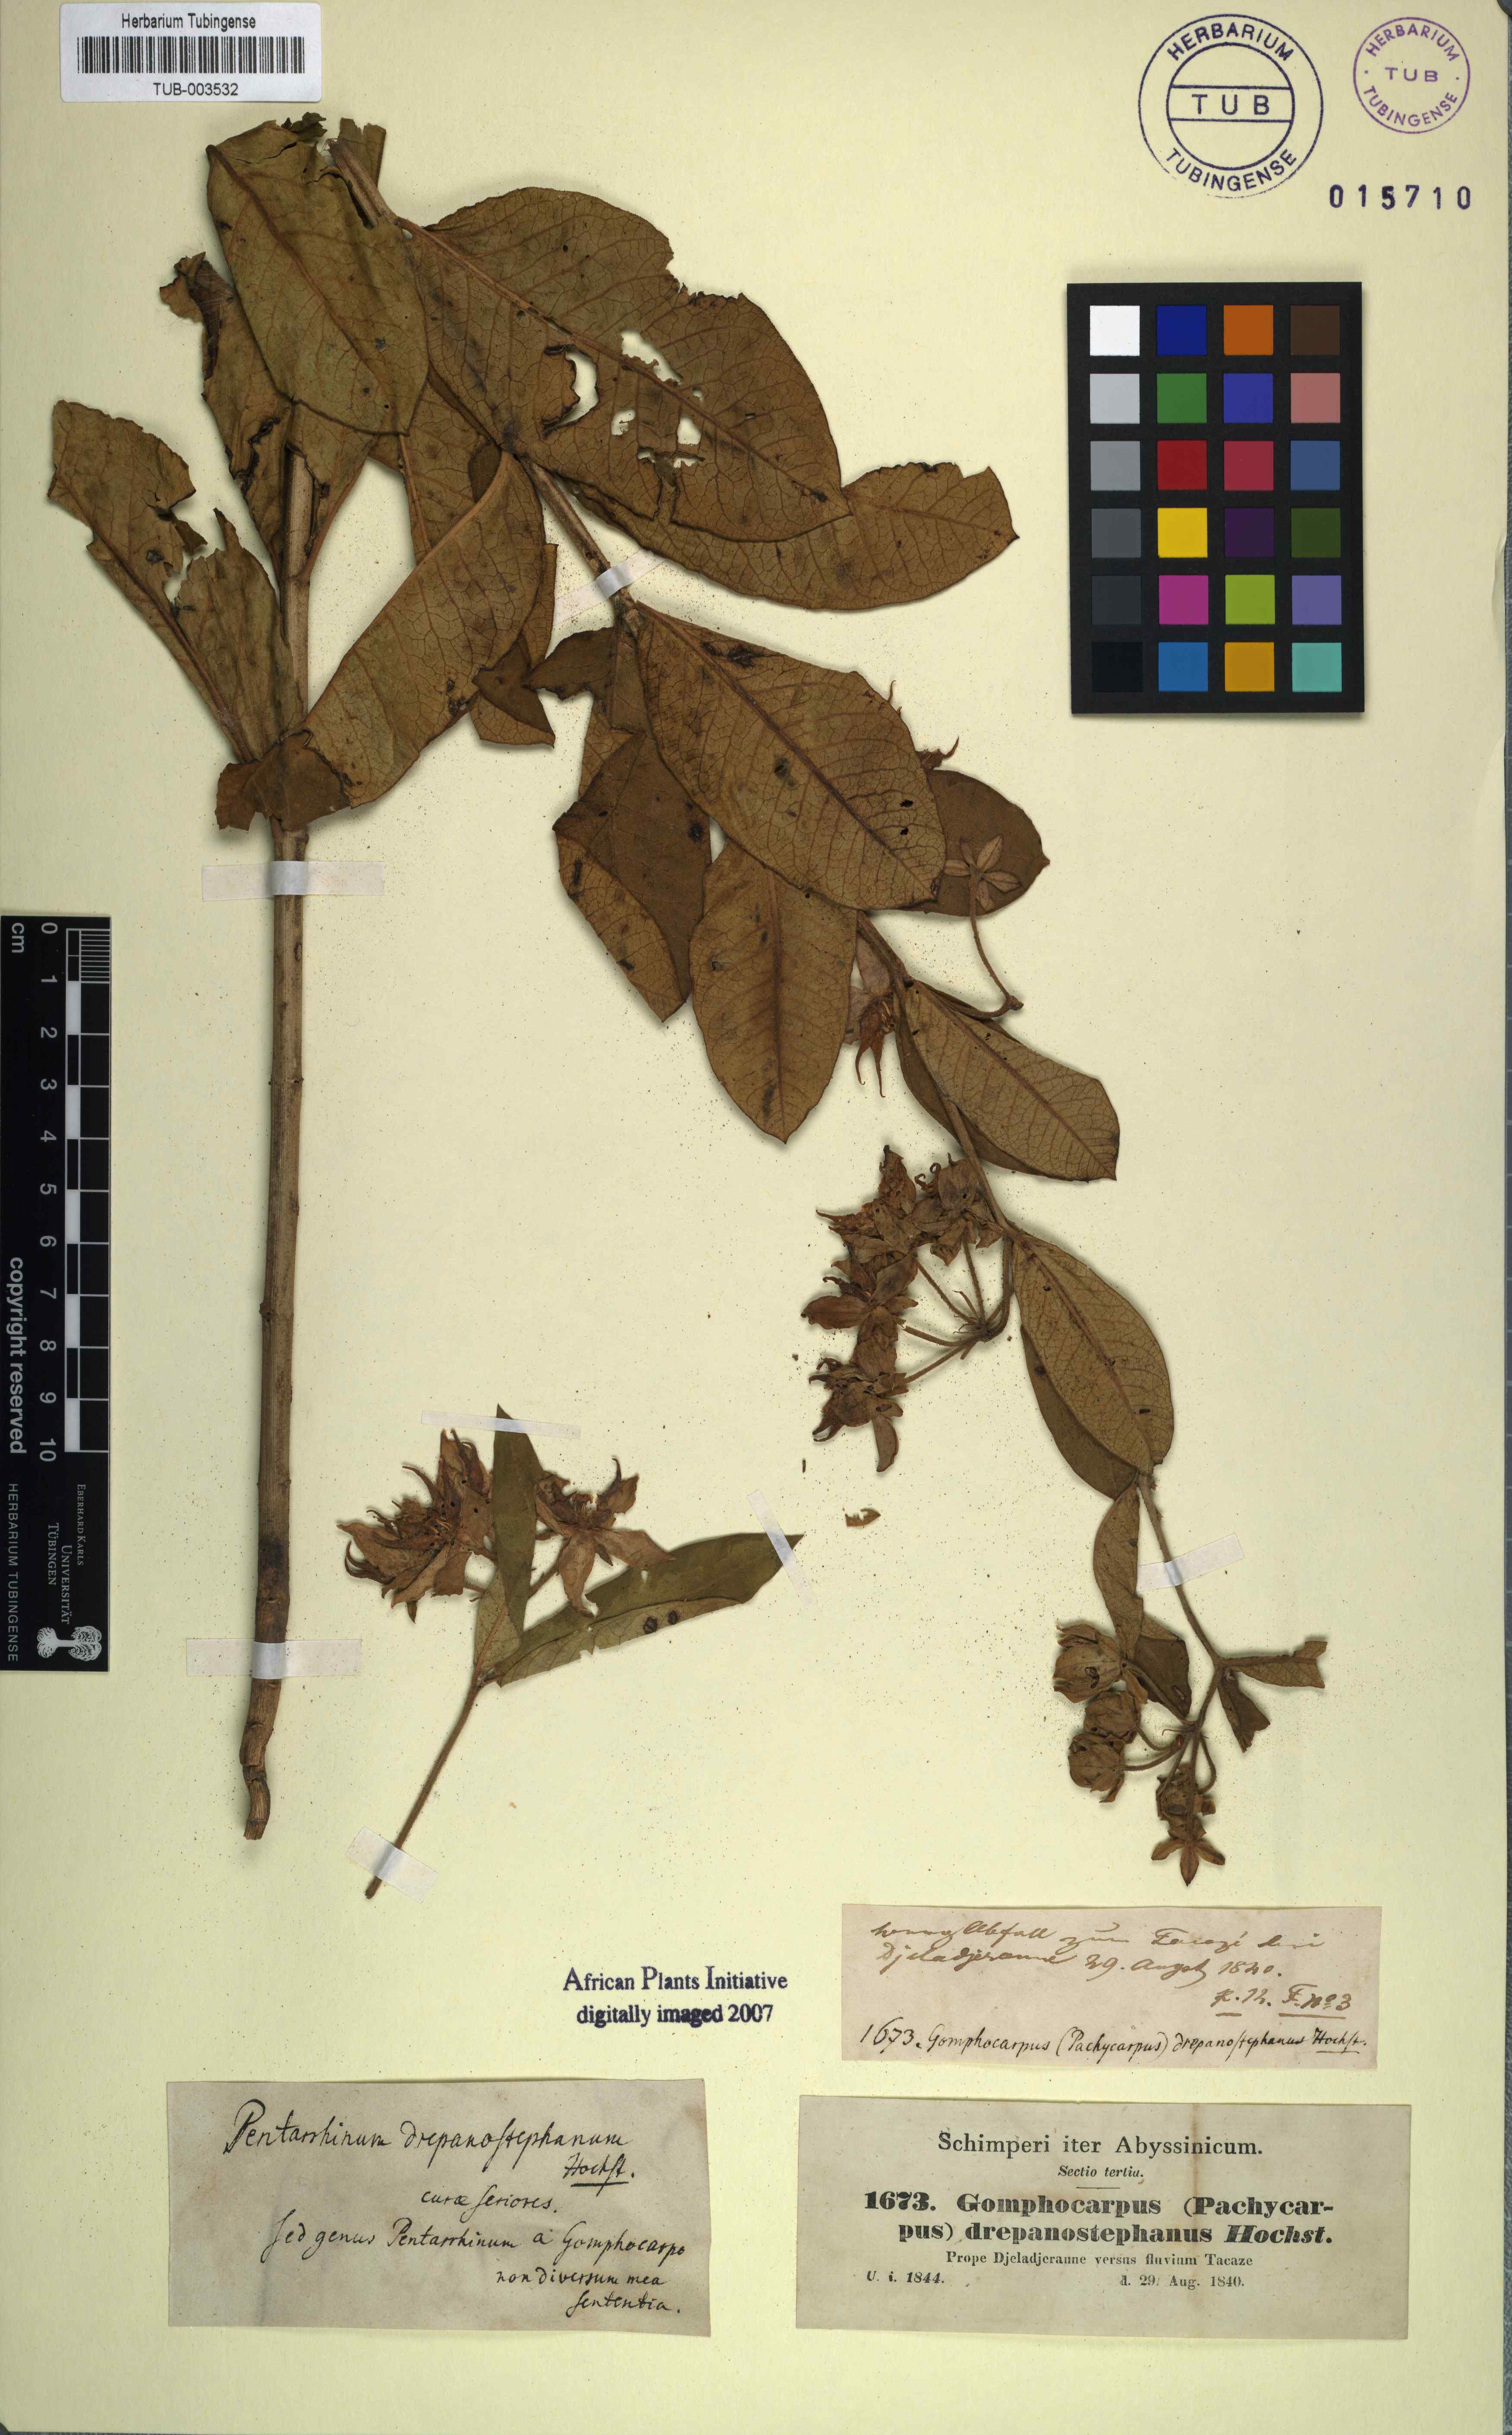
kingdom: Plantae
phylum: Tracheophyta
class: Magnoliopsida
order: Gentianales
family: Apocynaceae
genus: Pachycarpus
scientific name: Pachycarpus robustus
